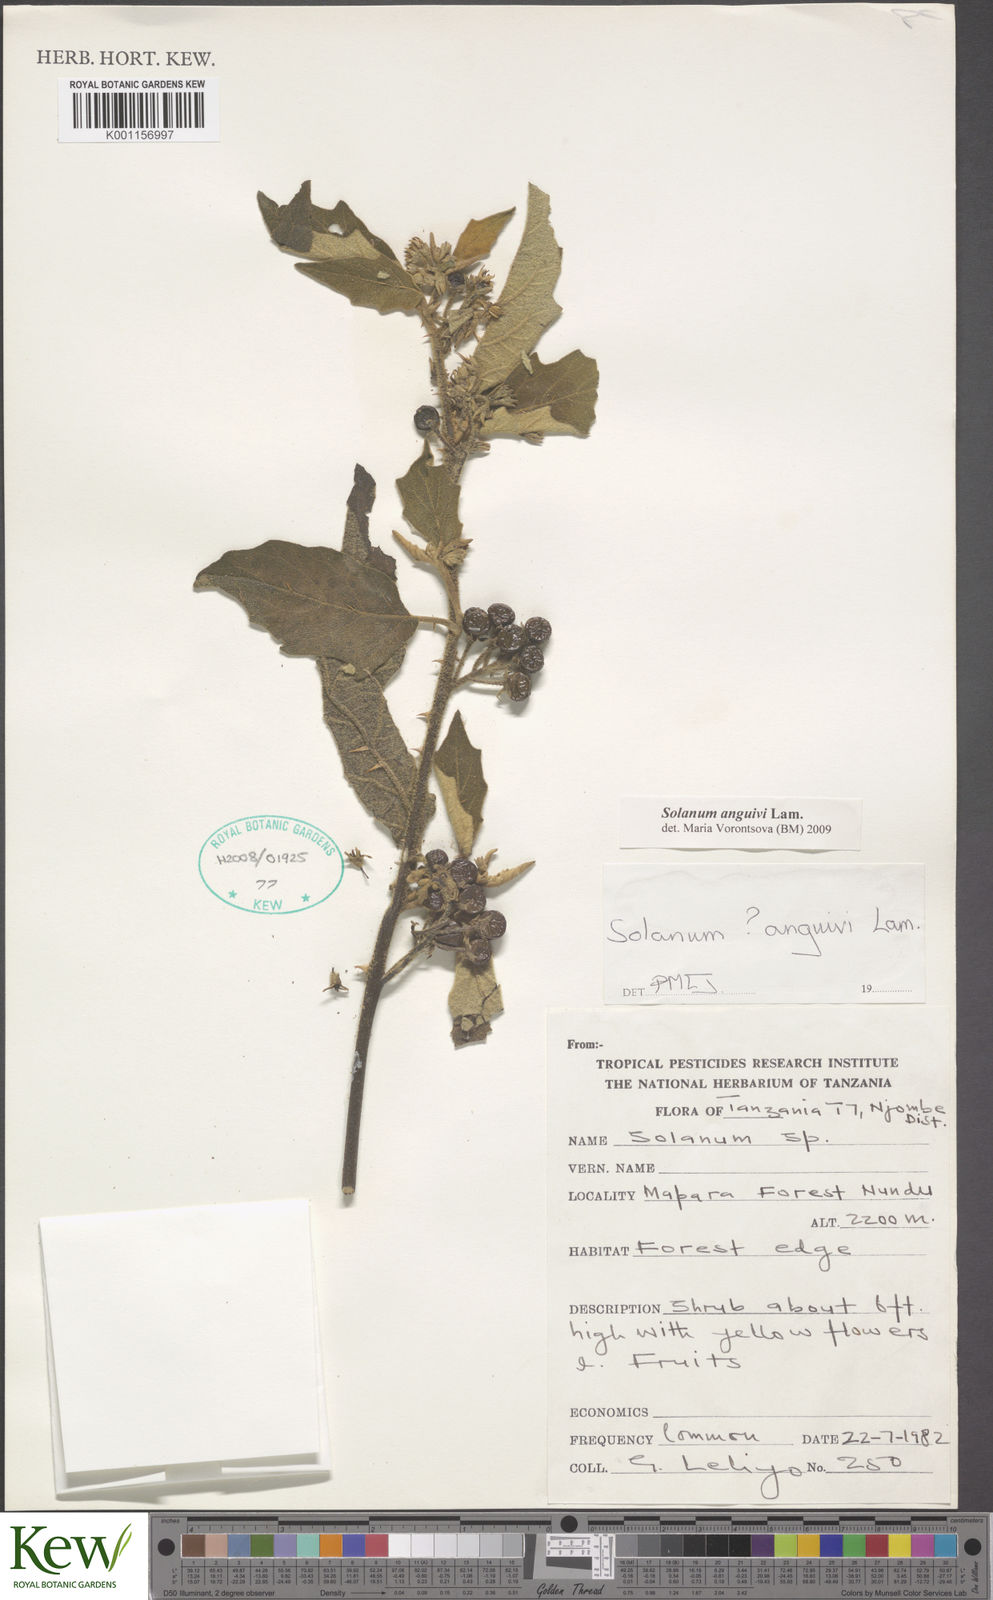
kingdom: Plantae
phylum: Tracheophyta
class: Magnoliopsida
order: Solanales
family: Solanaceae
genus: Solanum
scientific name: Solanum anguivi
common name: Forest bitterberry
